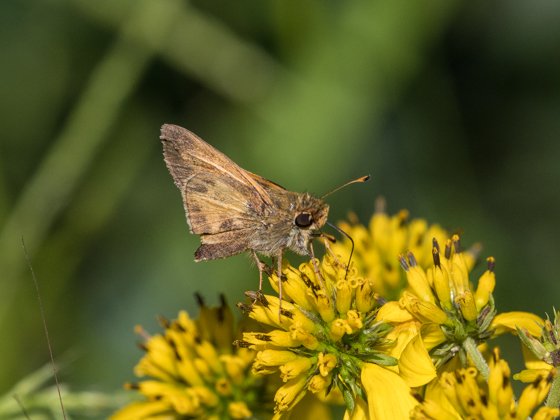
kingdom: Animalia
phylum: Arthropoda
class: Insecta
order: Lepidoptera
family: Hesperiidae
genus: Atalopedes
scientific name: Atalopedes campestris
